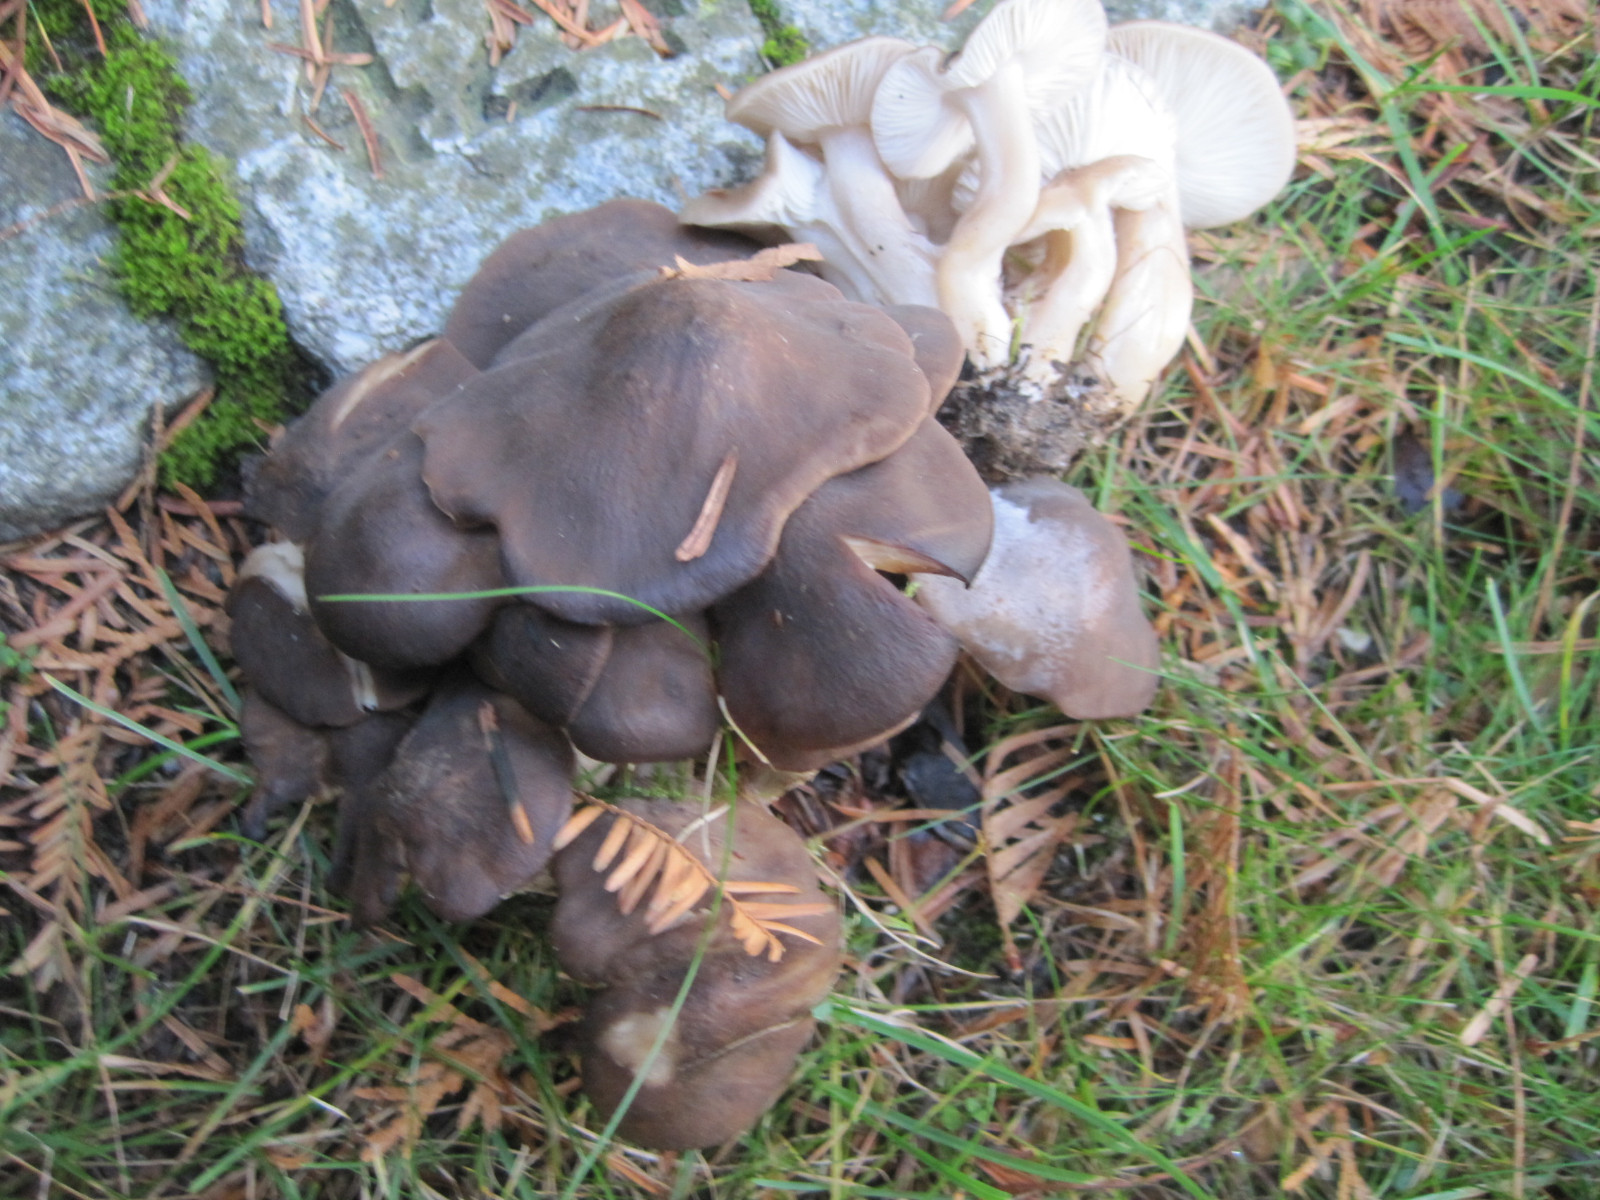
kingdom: Fungi
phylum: Basidiomycota
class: Agaricomycetes
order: Agaricales
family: Lyophyllaceae
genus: Lyophyllum
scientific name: Lyophyllum decastes
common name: Clustered domecap
